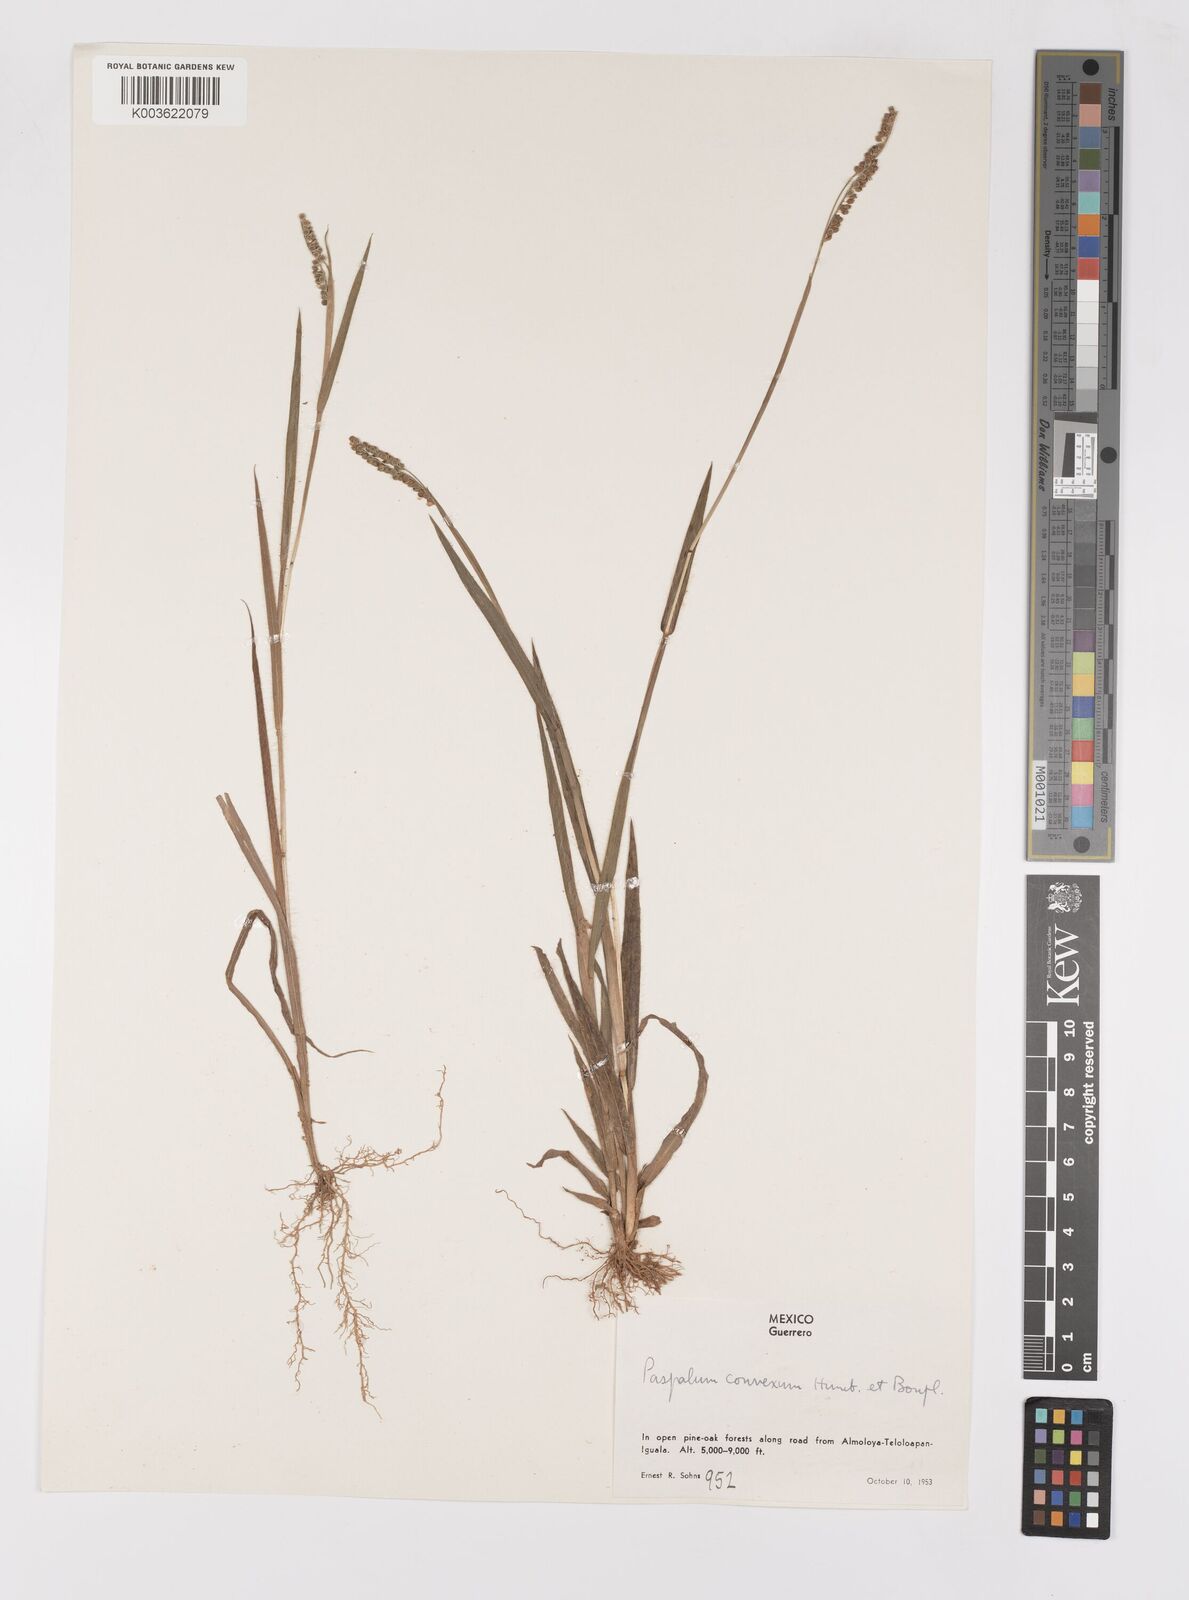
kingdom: Plantae
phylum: Tracheophyta
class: Liliopsida
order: Poales
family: Poaceae
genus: Paspalum
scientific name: Paspalum convexum
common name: Latin american crowngrass
